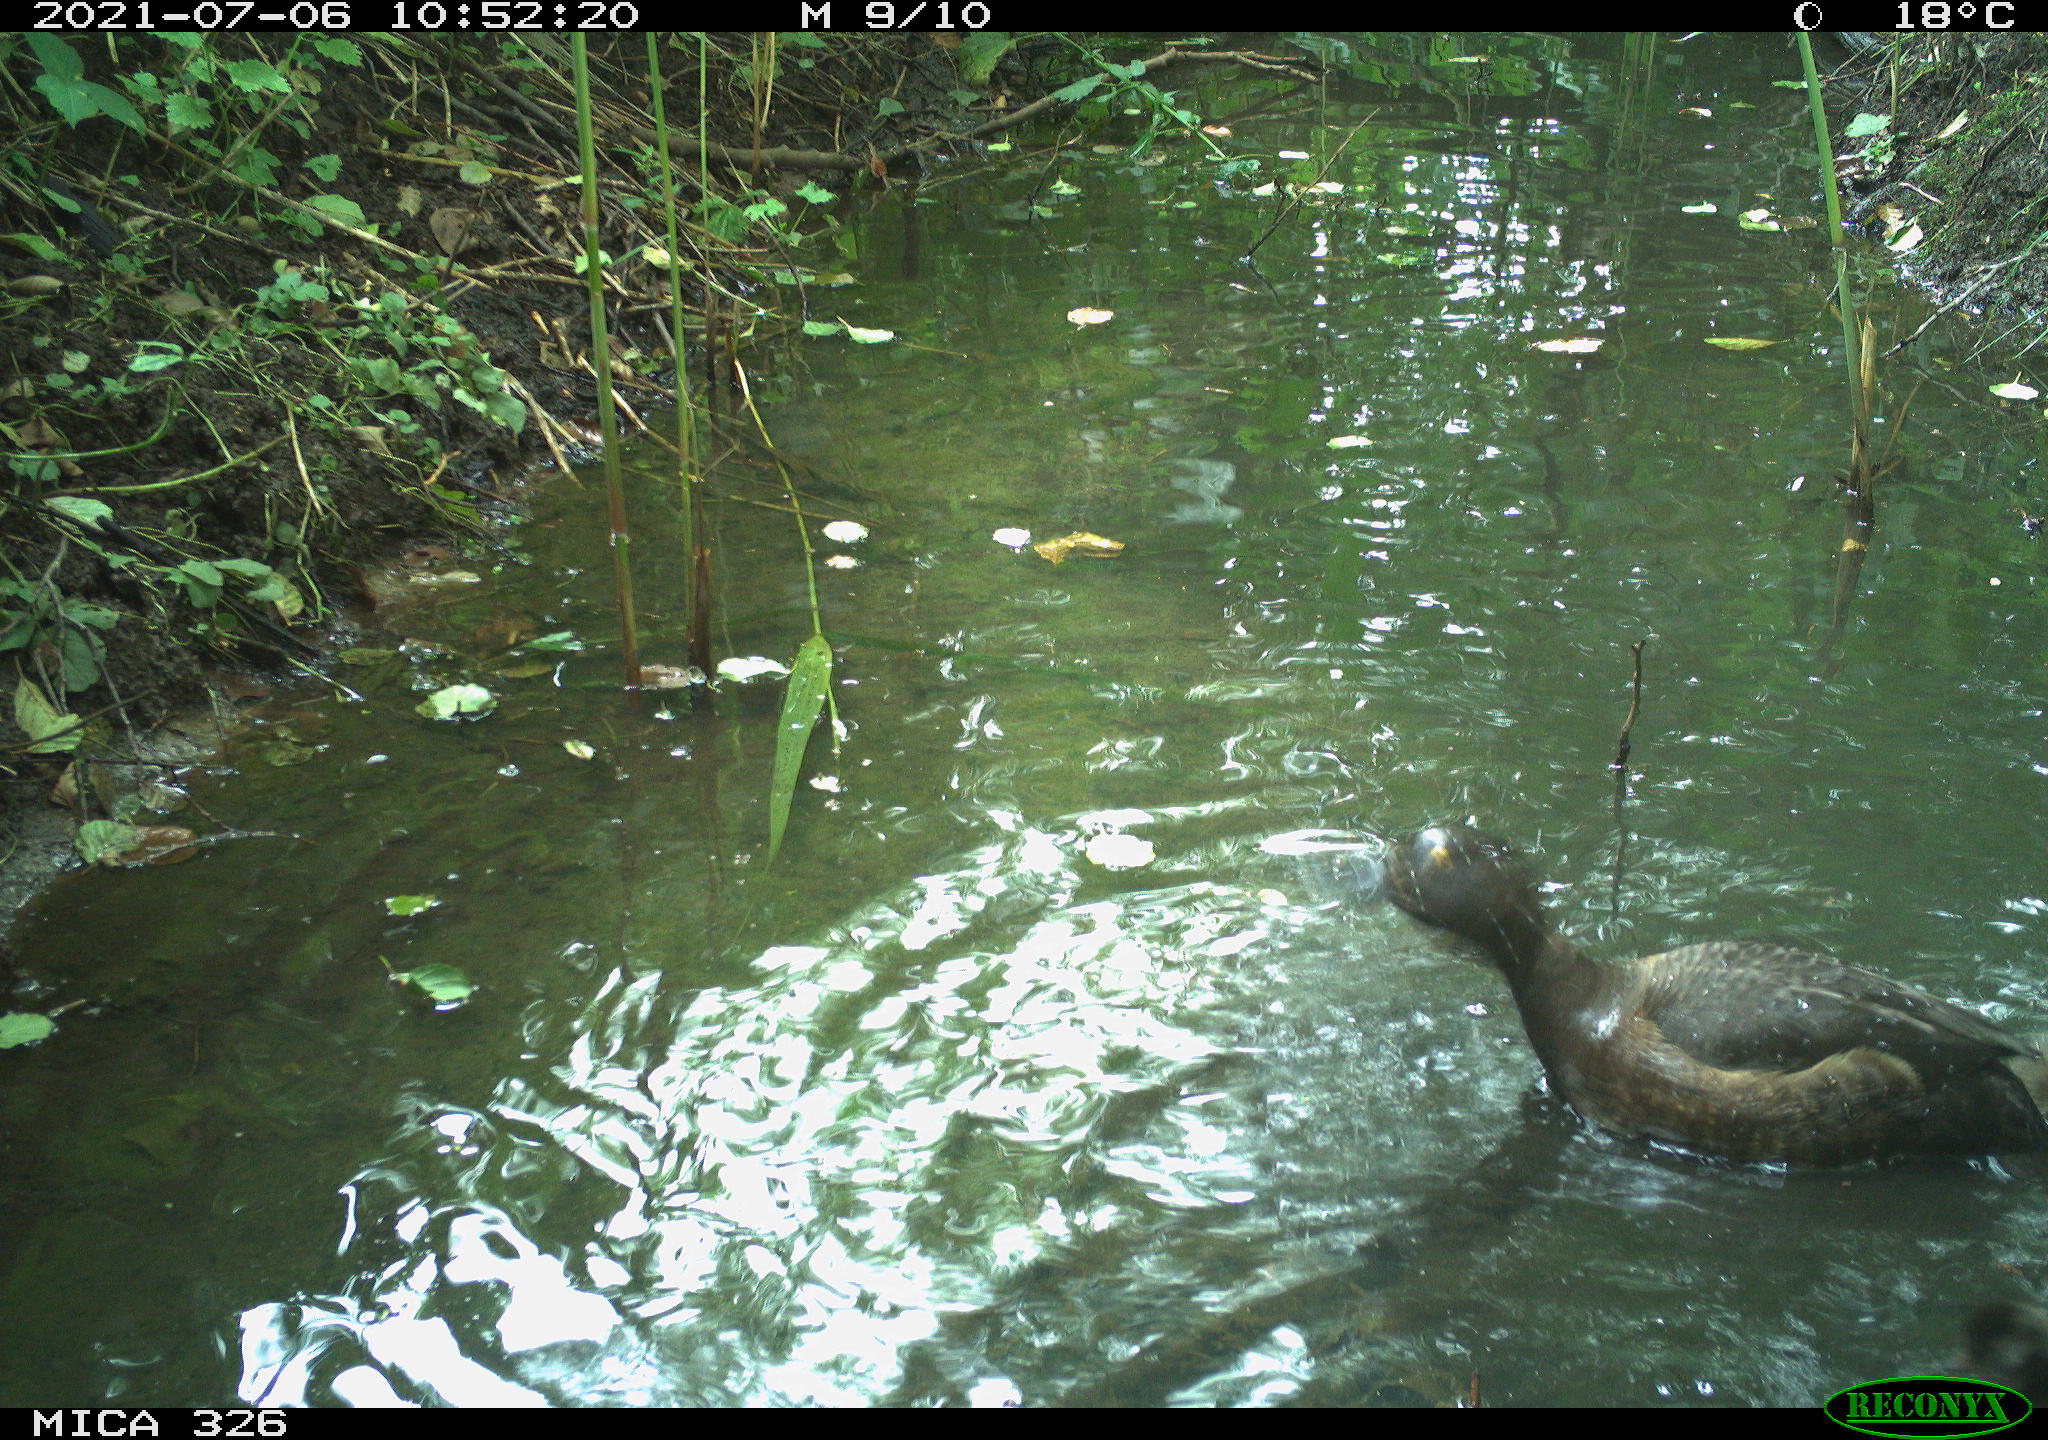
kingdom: Animalia
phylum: Chordata
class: Aves
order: Anseriformes
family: Anatidae
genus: Aythya
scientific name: Aythya fuligula
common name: Tufted duck
